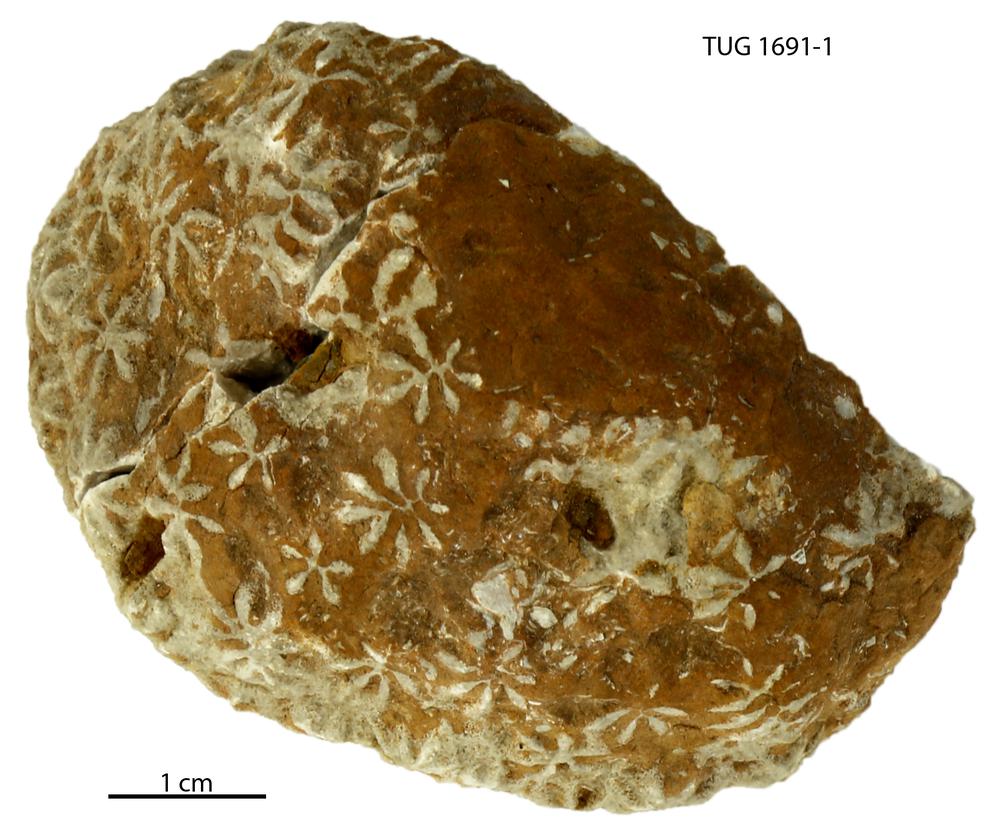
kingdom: Animalia
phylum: Bryozoa
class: Stenolaemata
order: Cystoporida
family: Constellariidae
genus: Revalopora
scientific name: Revalopora revalensis
